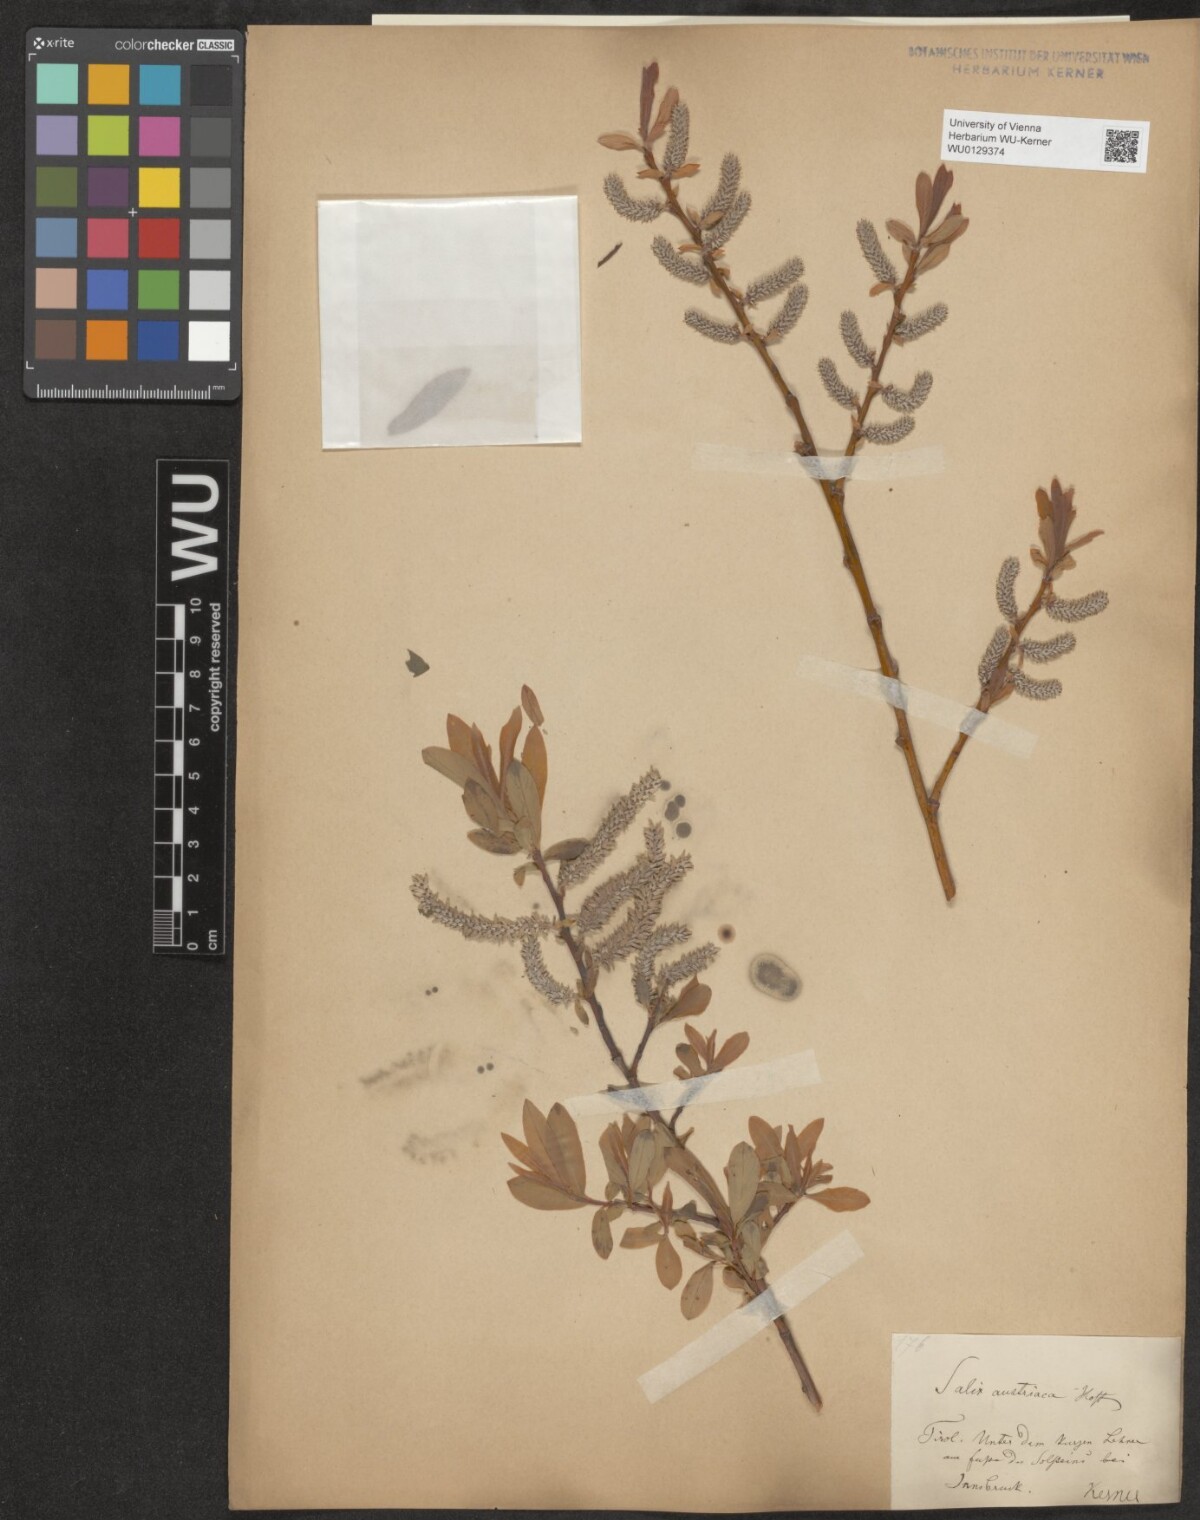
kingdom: Plantae
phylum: Tracheophyta
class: Magnoliopsida
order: Malpighiales
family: Salicaceae
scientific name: Salicaceae
